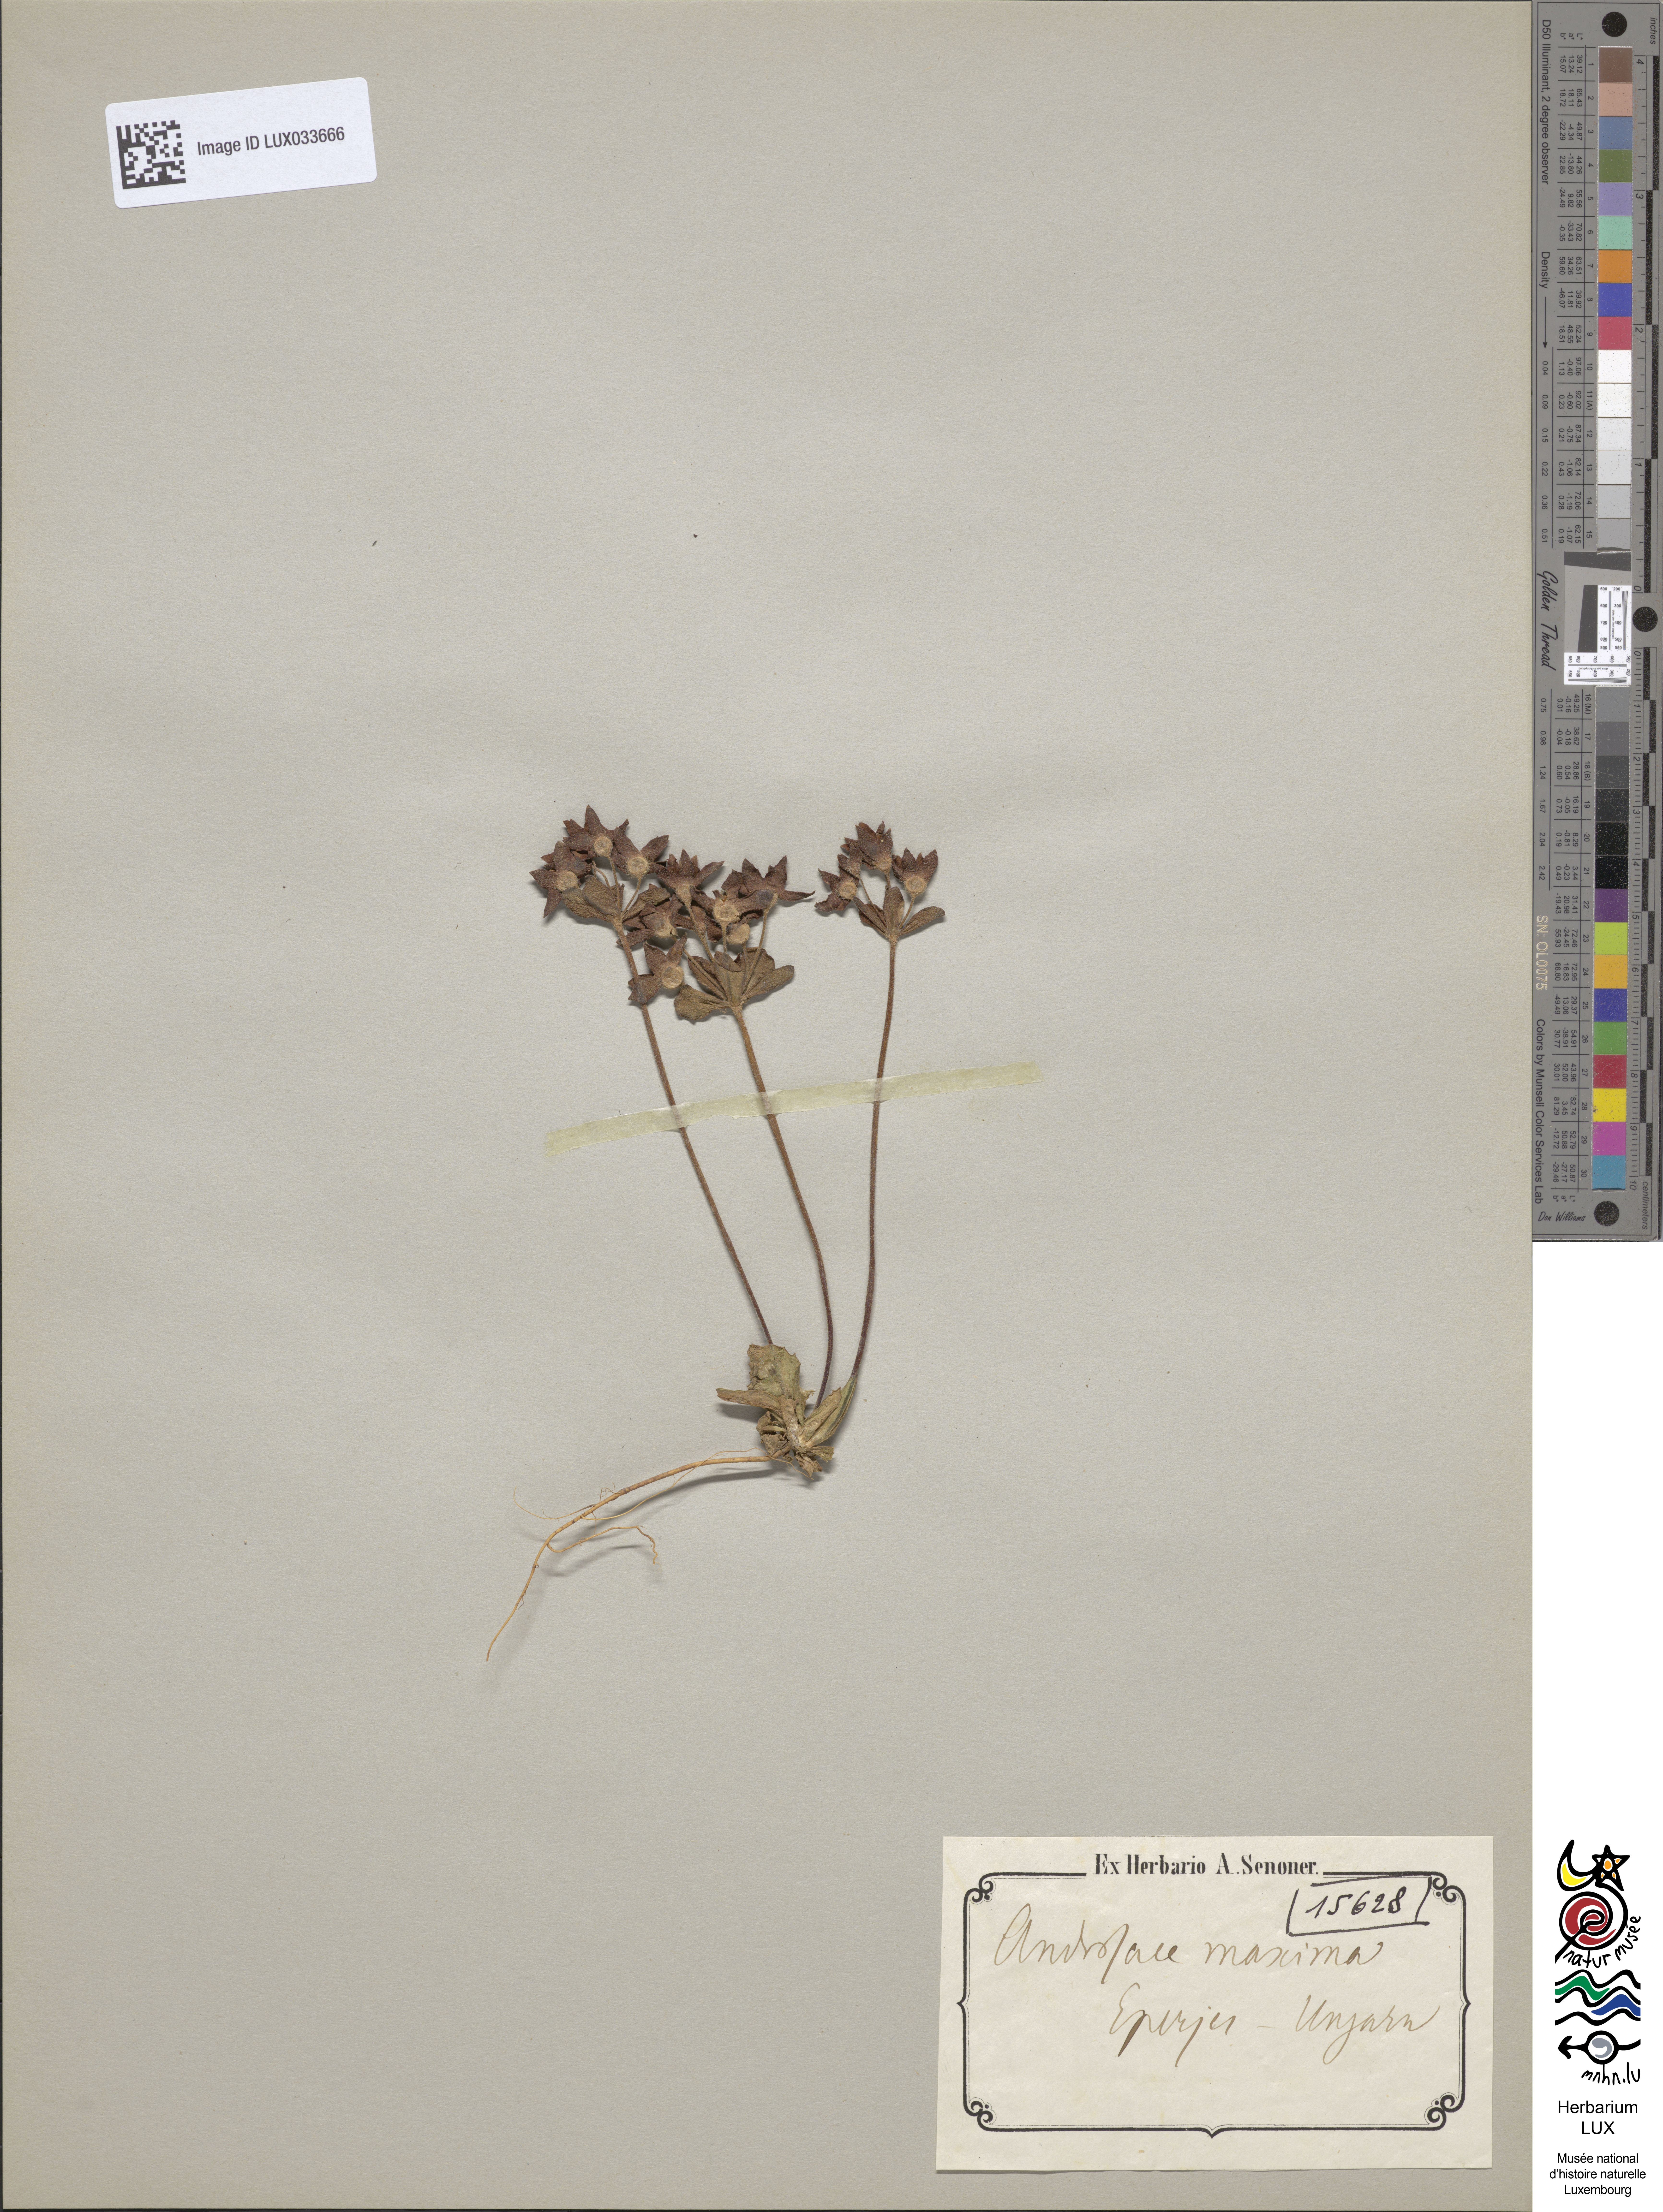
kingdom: Plantae
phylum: Tracheophyta
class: Magnoliopsida
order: Ericales
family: Primulaceae
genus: Androsace
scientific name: Androsace maxima
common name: Annual androsace
